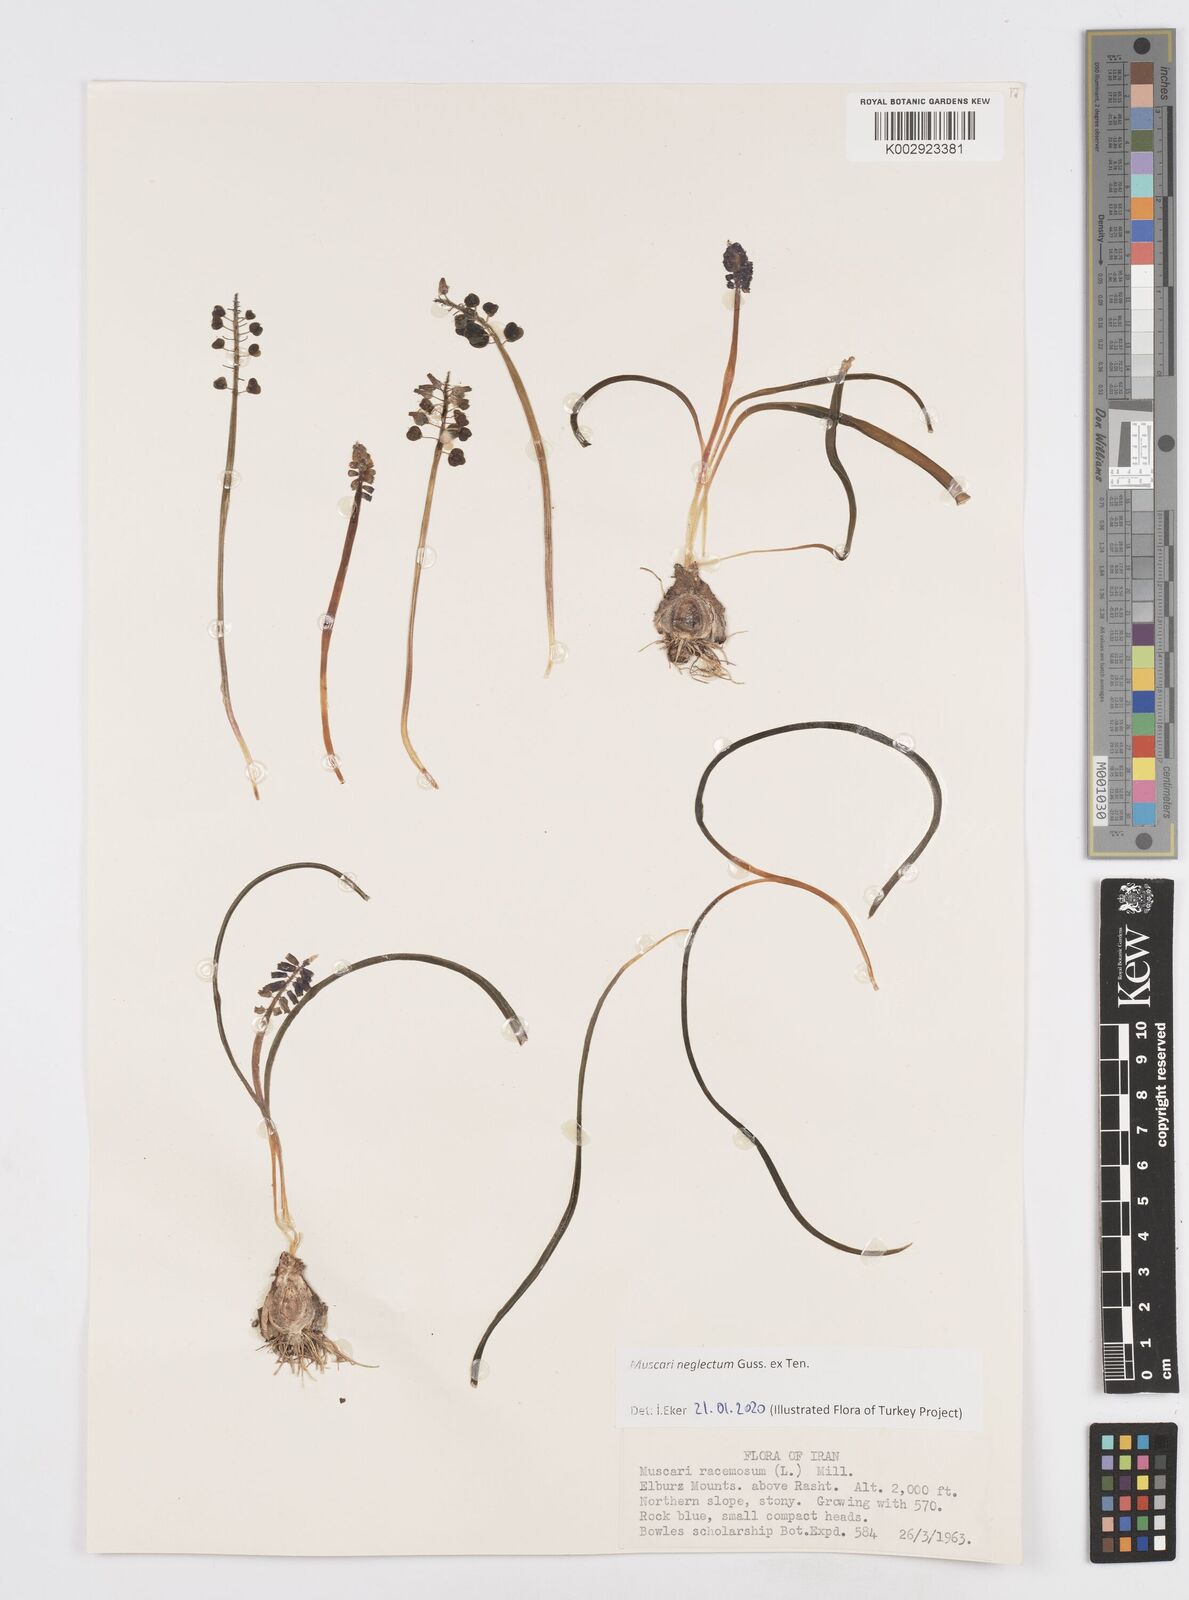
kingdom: Plantae
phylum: Tracheophyta
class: Liliopsida
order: Asparagales
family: Asparagaceae
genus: Muscari
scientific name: Muscari neglectum
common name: Grape-hyacinth
